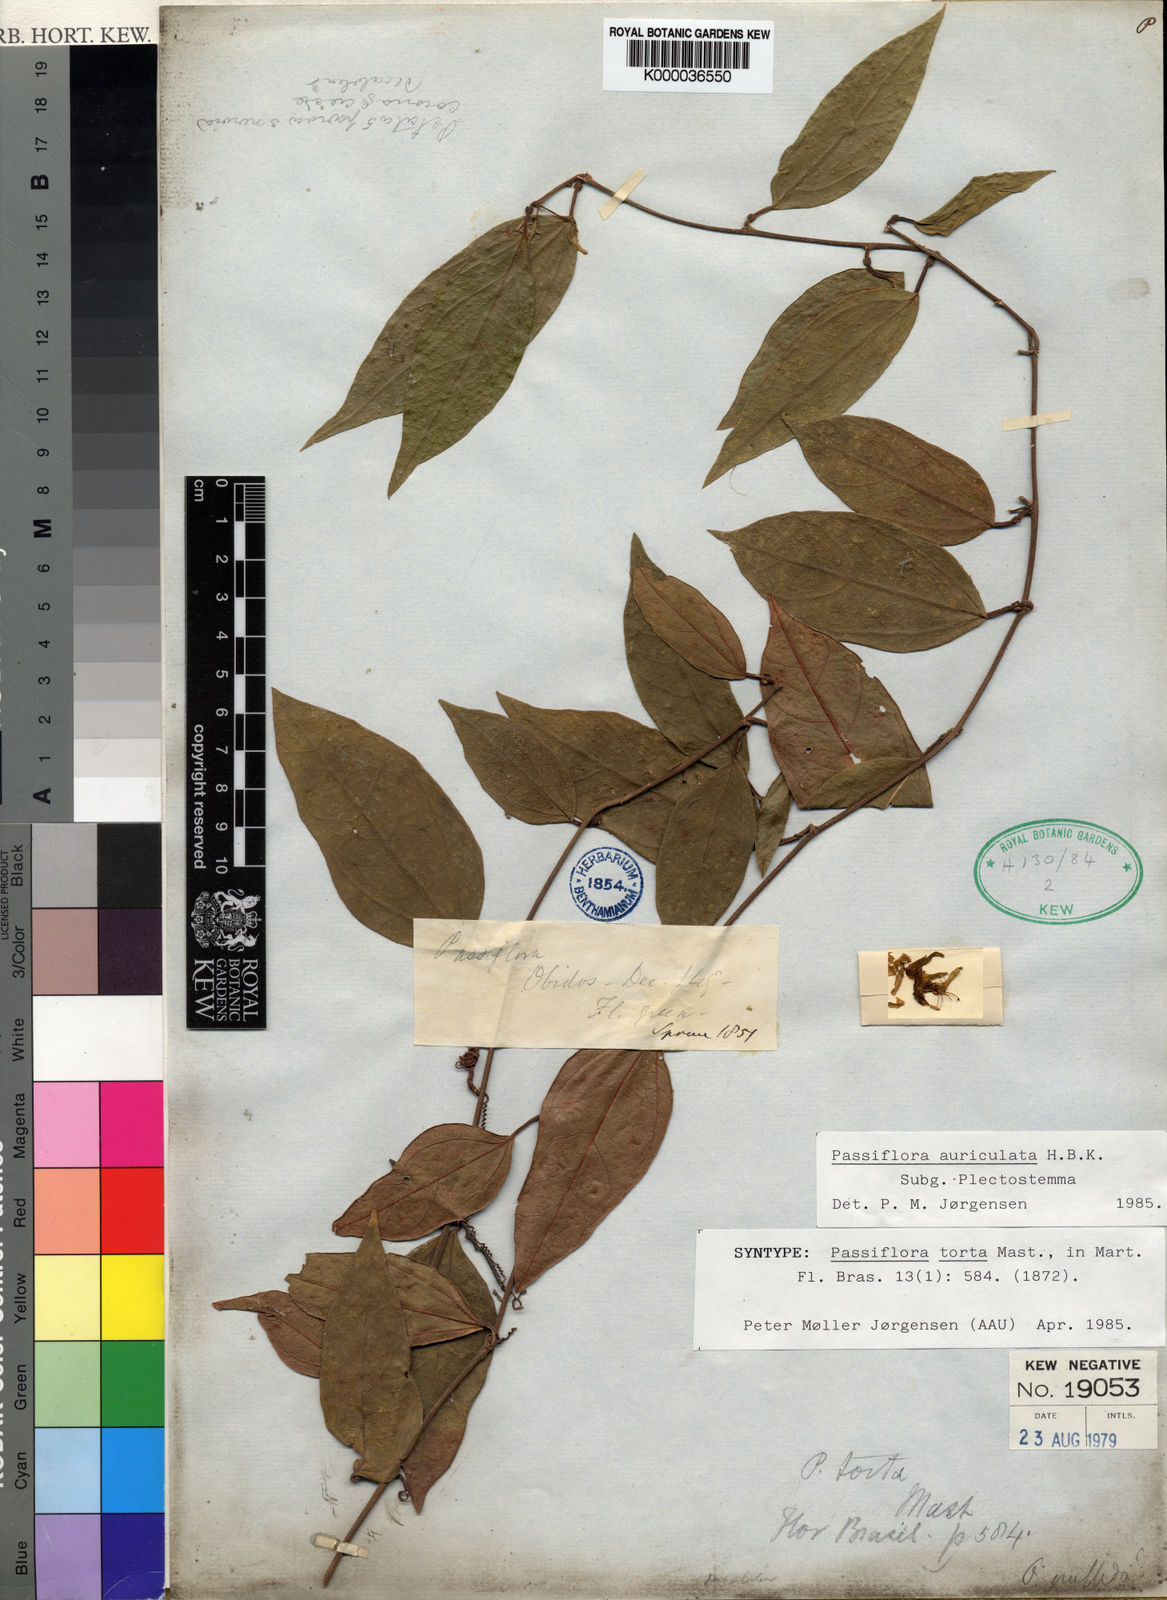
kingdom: Plantae
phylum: Tracheophyta
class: Magnoliopsida
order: Malpighiales
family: Passifloraceae
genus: Passiflora
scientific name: Passiflora
